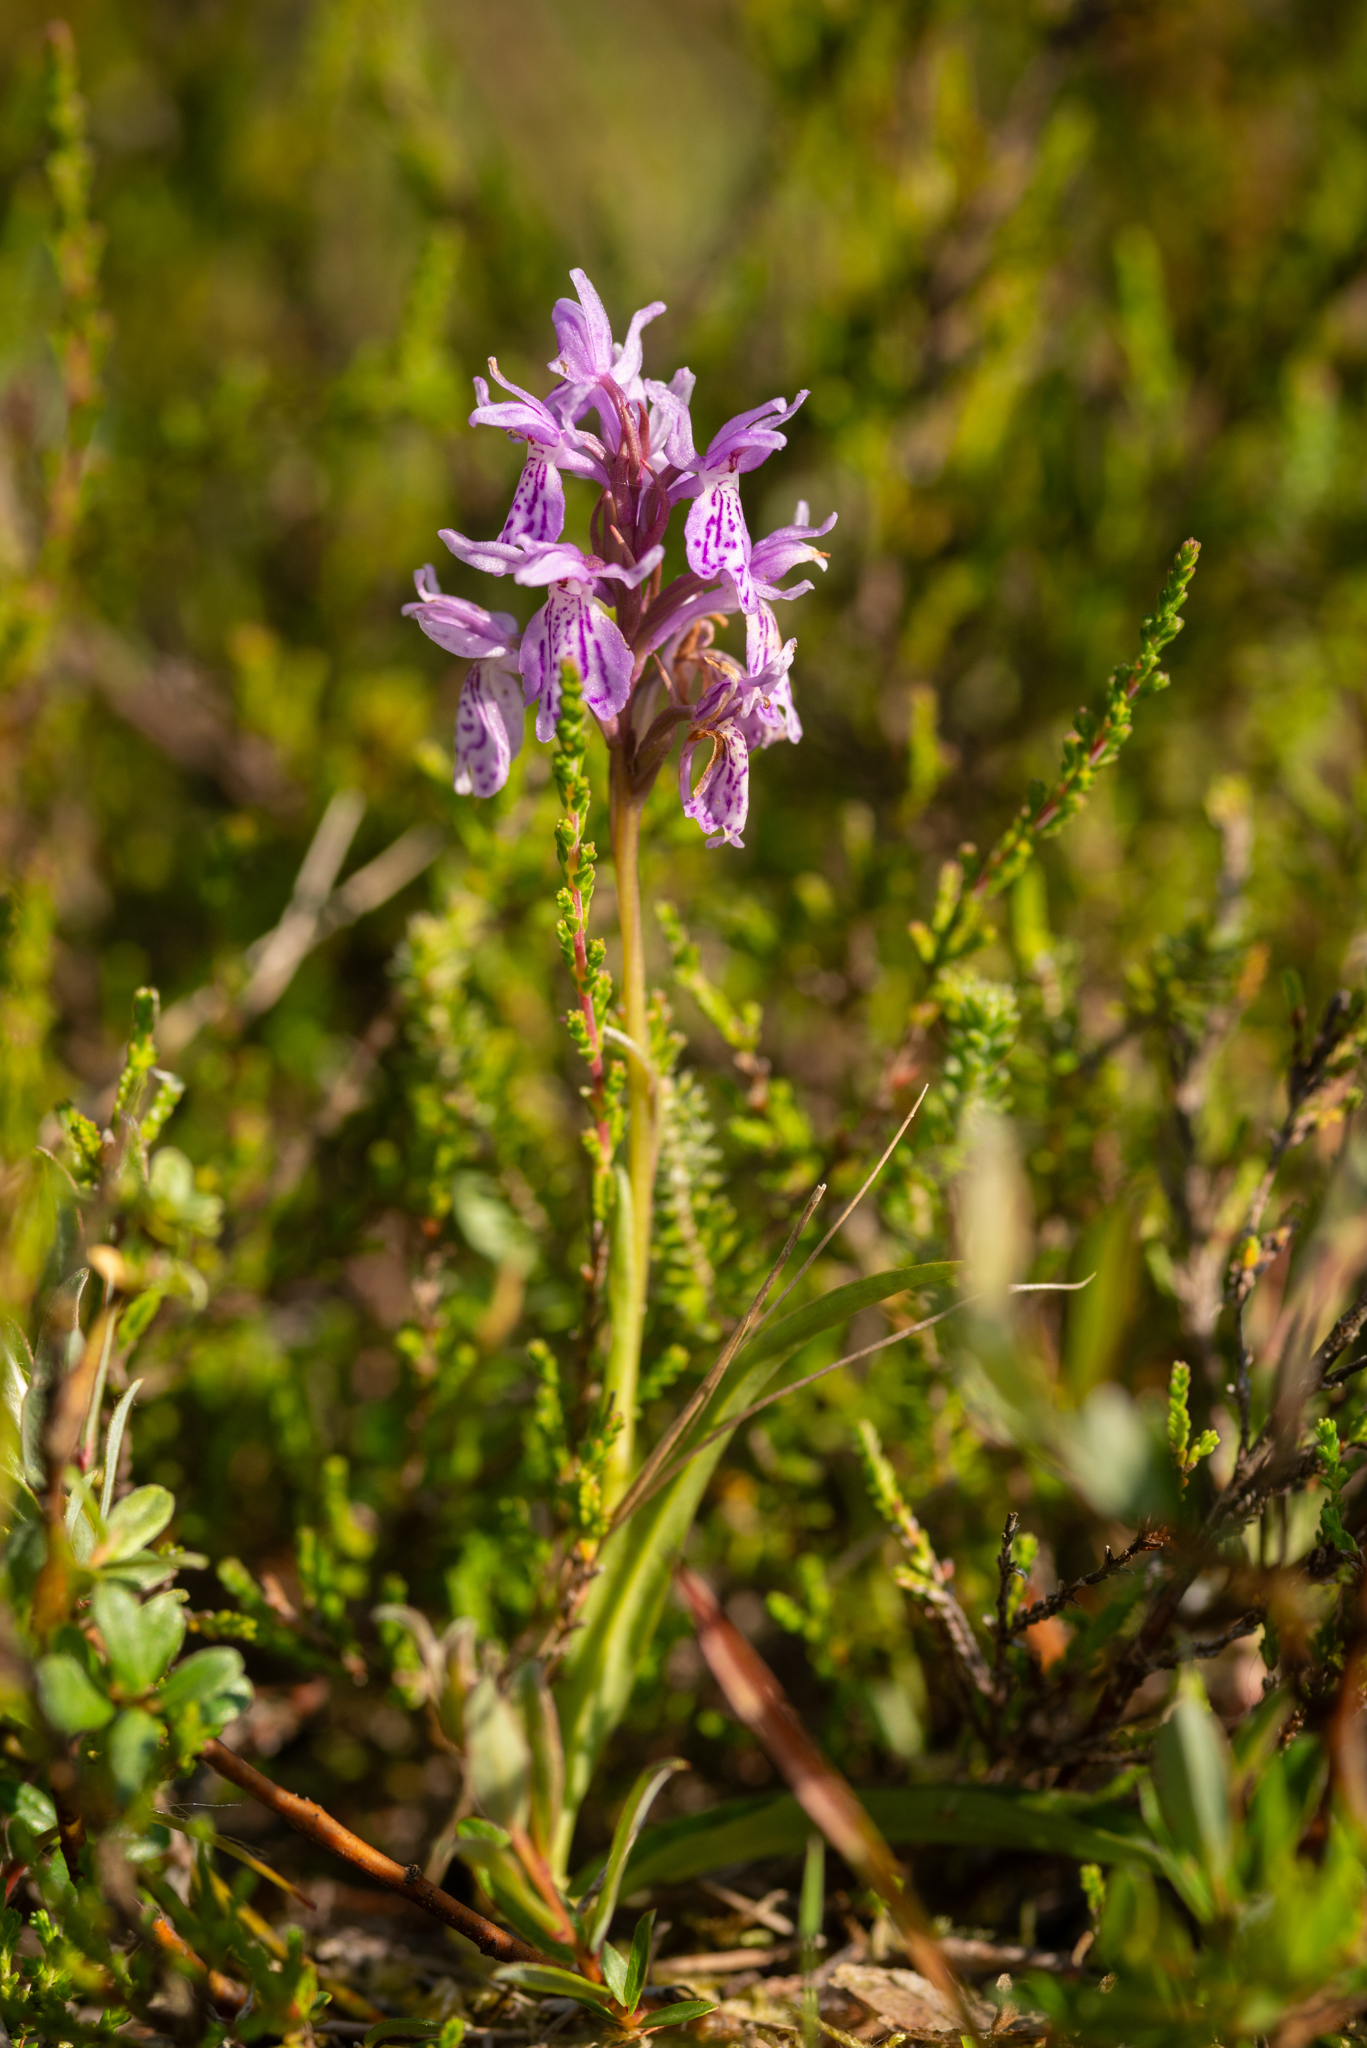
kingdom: Plantae
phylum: Tracheophyta
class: Liliopsida
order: Asparagales
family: Orchidaceae
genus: Dactylorhiza
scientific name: Dactylorhiza maculata
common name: Plettet gøgeurt (underart)
